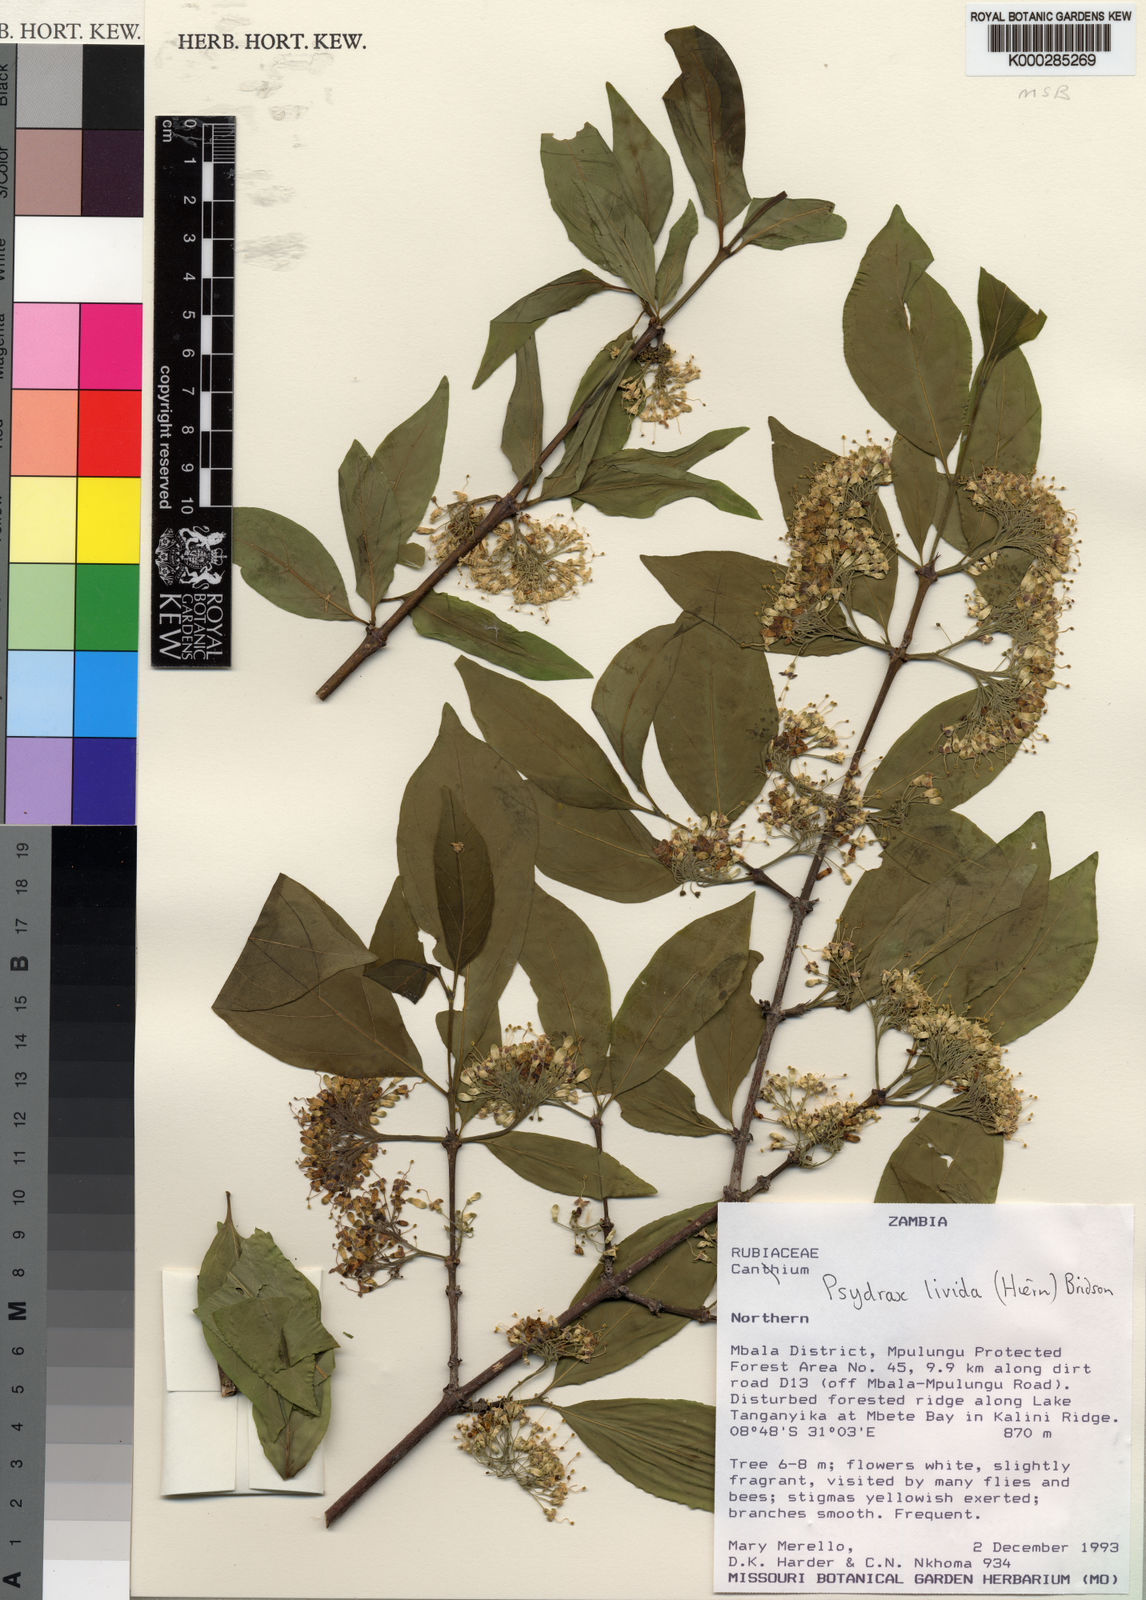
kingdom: Plantae
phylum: Tracheophyta
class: Magnoliopsida
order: Gentianales
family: Rubiaceae
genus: Psydrax
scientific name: Psydrax lividus
